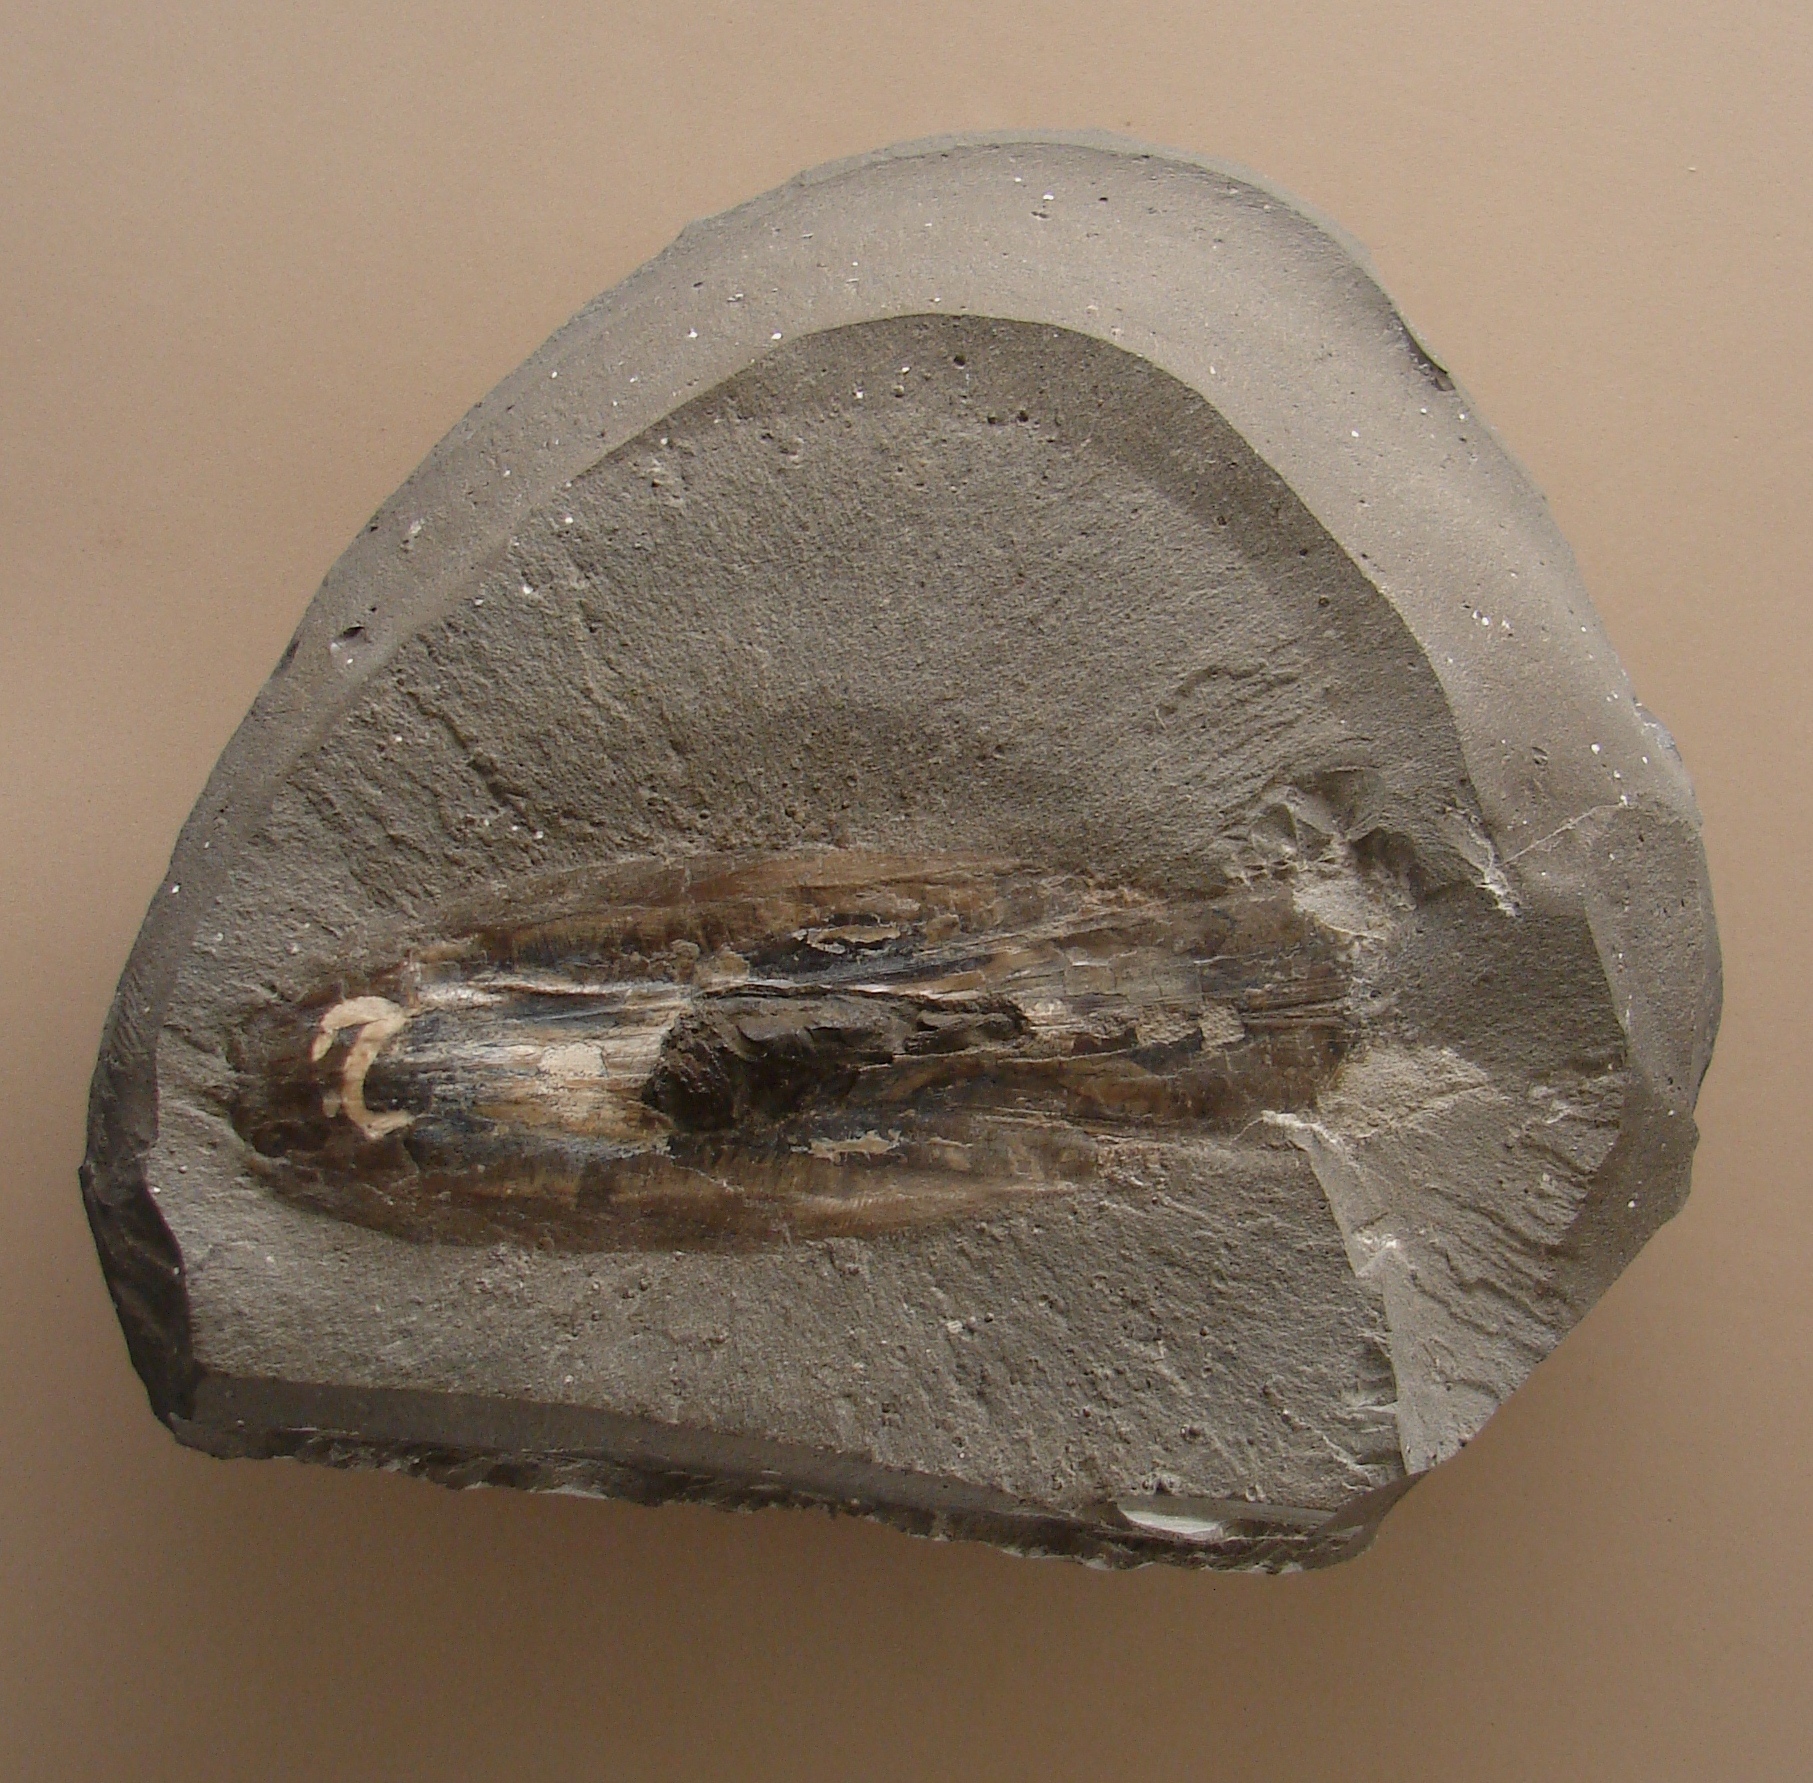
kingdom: Animalia
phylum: Mollusca
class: Cephalopoda
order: Vampyromorpha
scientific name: Vampyromorpha
